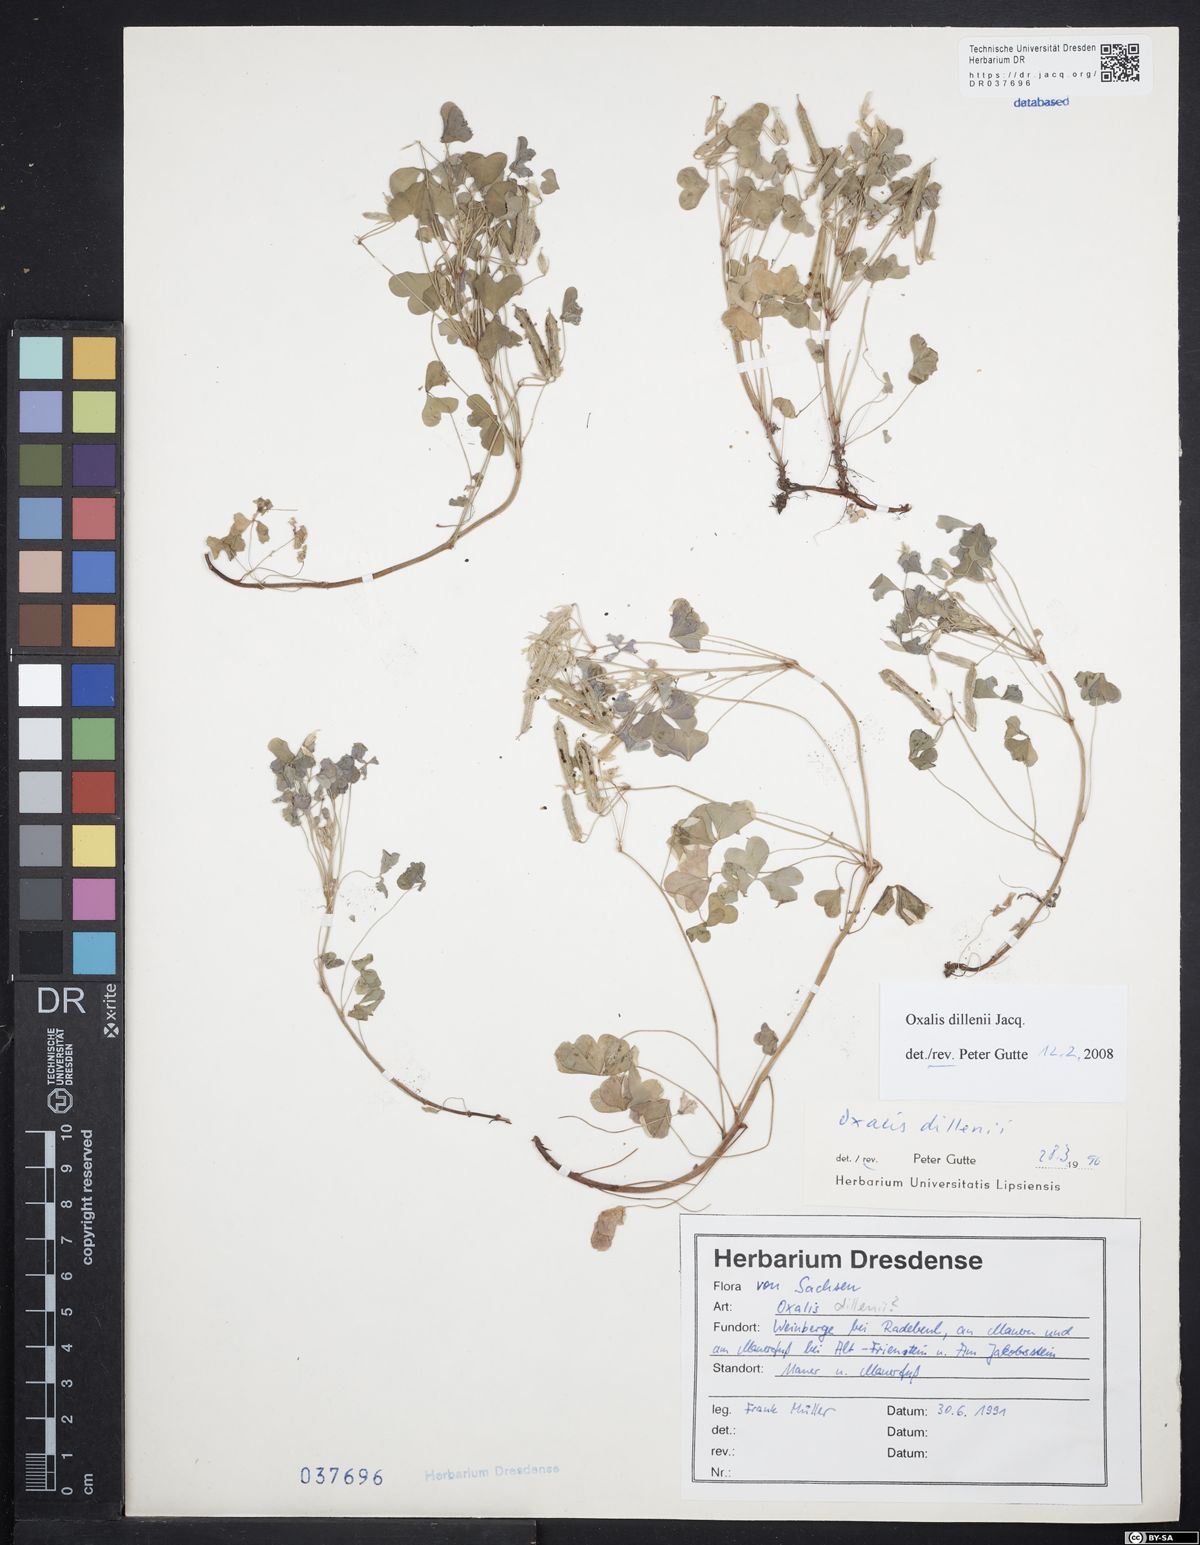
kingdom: Plantae
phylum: Tracheophyta
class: Magnoliopsida
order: Oxalidales
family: Oxalidaceae
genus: Oxalis
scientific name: Oxalis dillenii
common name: Sussex yellow-sorrel
